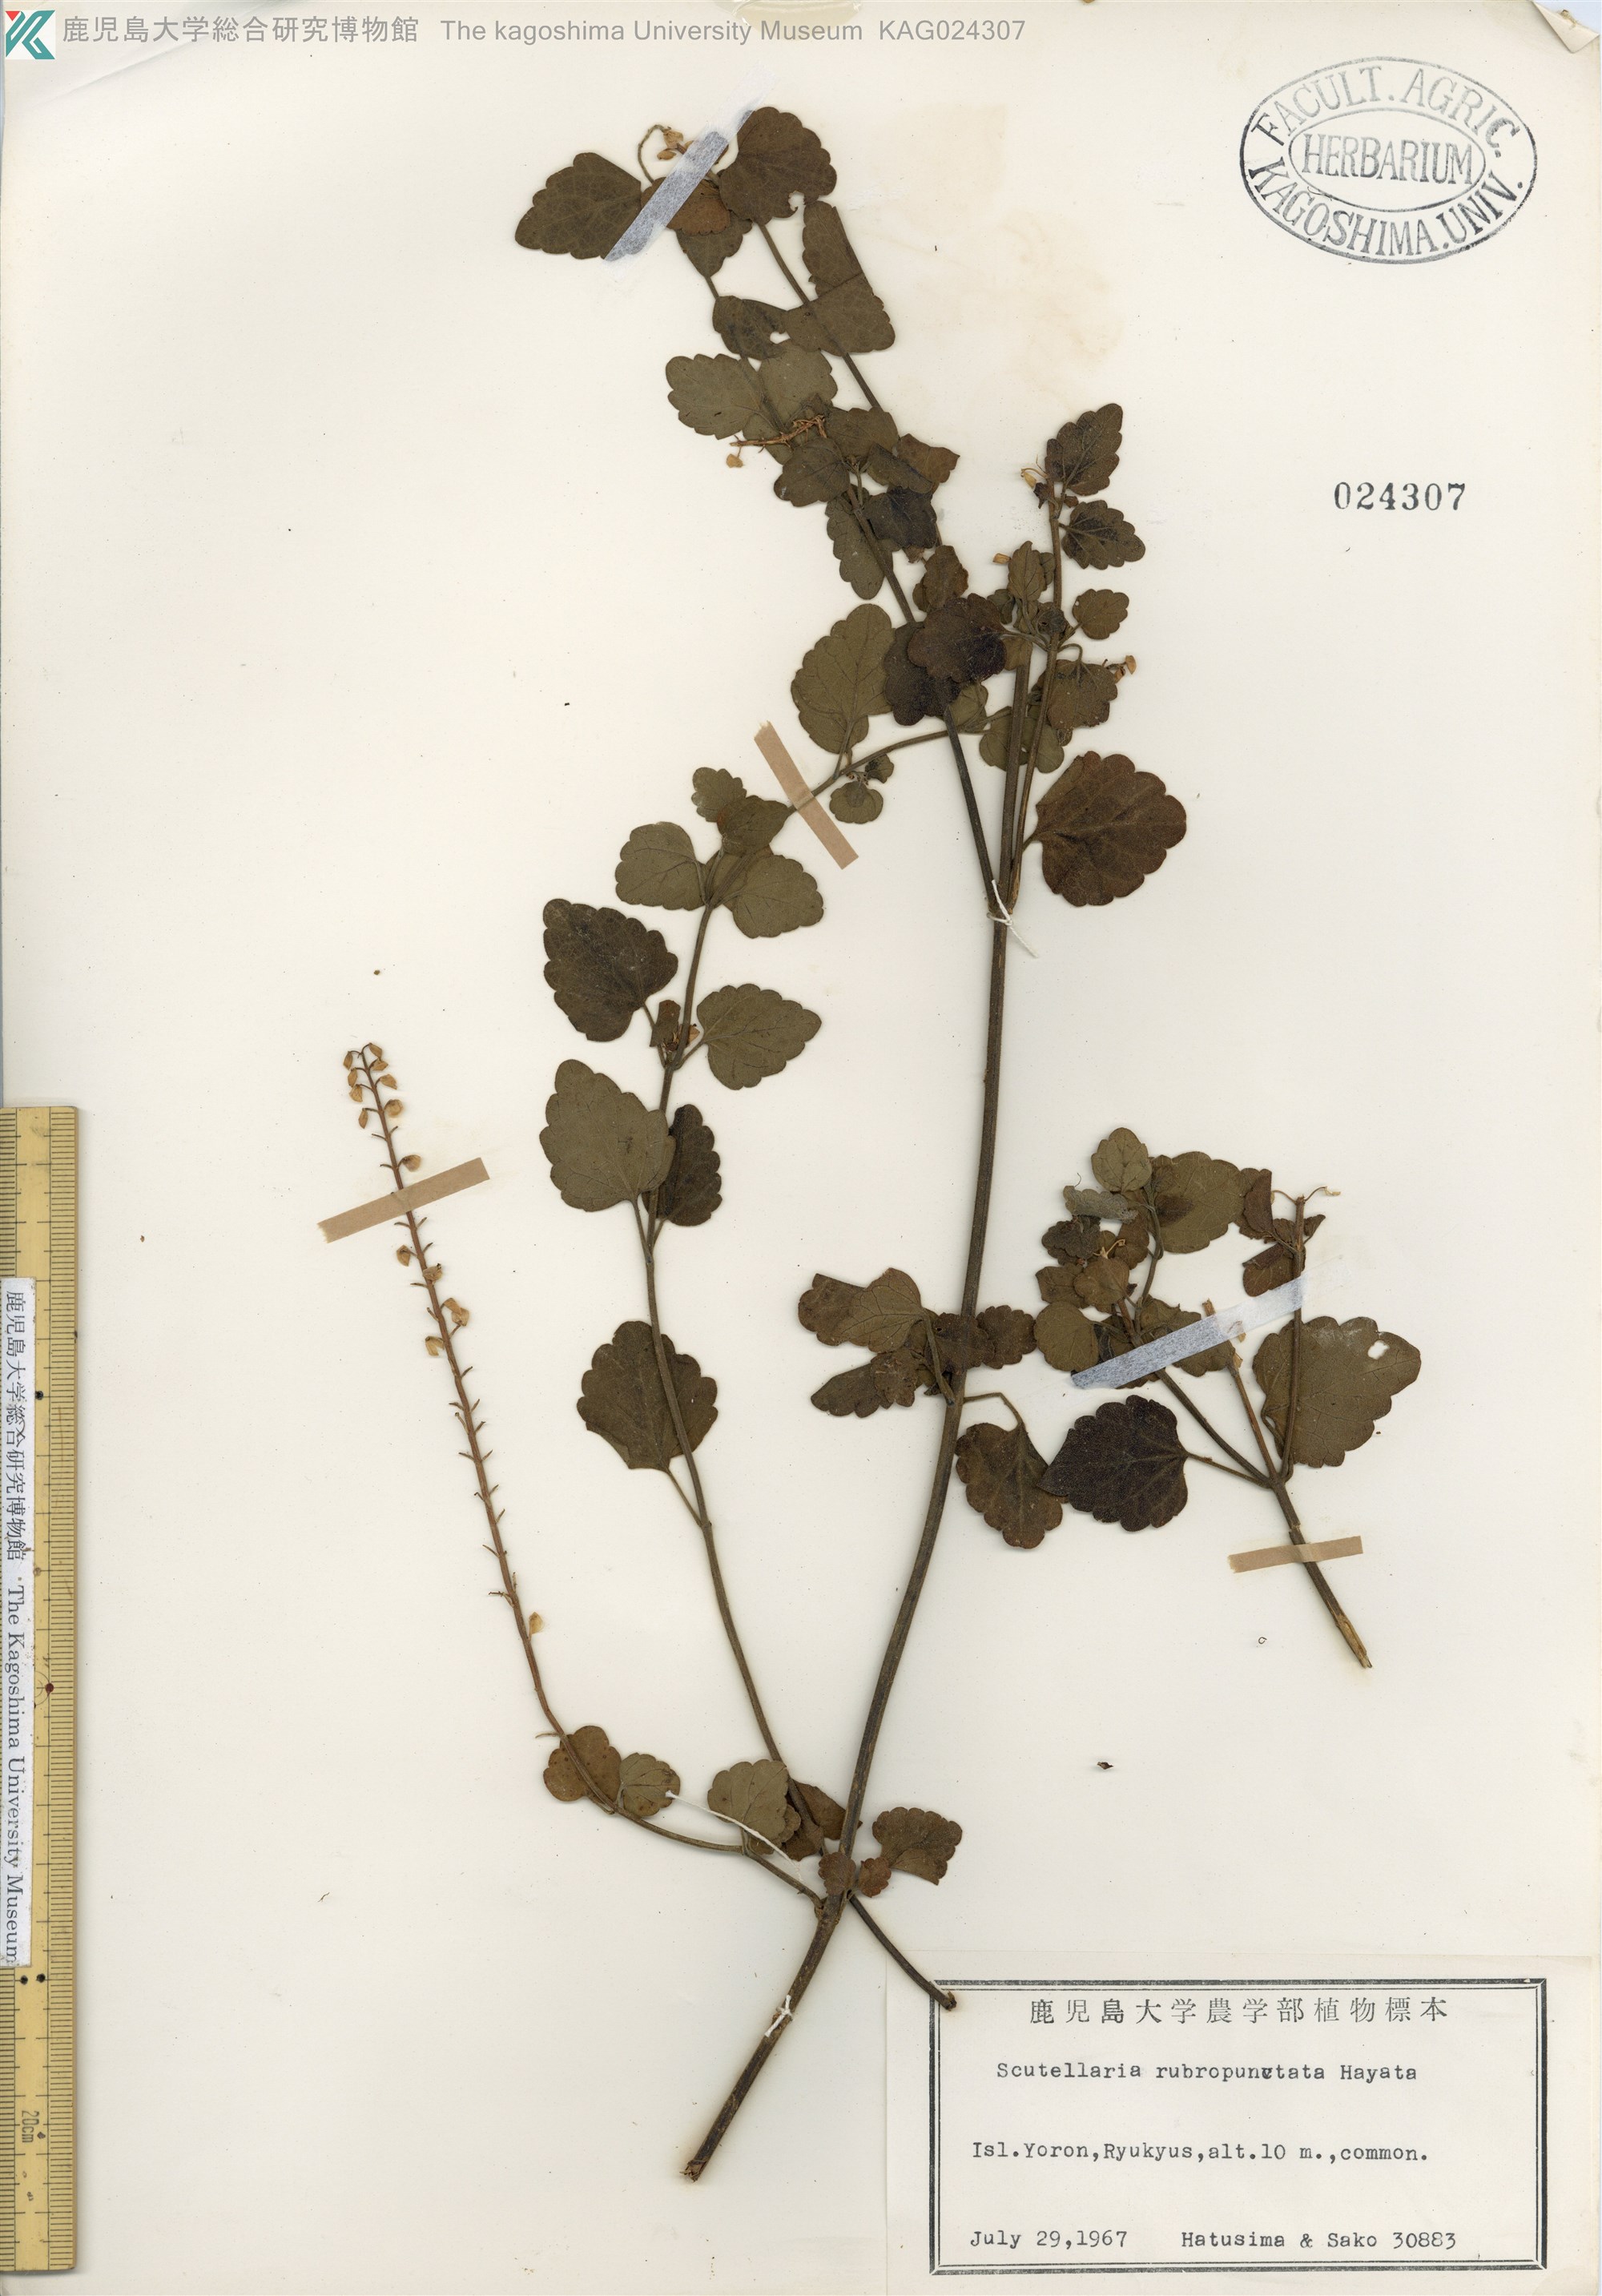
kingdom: Plantae
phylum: Tracheophyta
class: Magnoliopsida
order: Lamiales
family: Lamiaceae
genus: Scutellaria
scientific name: Scutellaria rubropunctata
